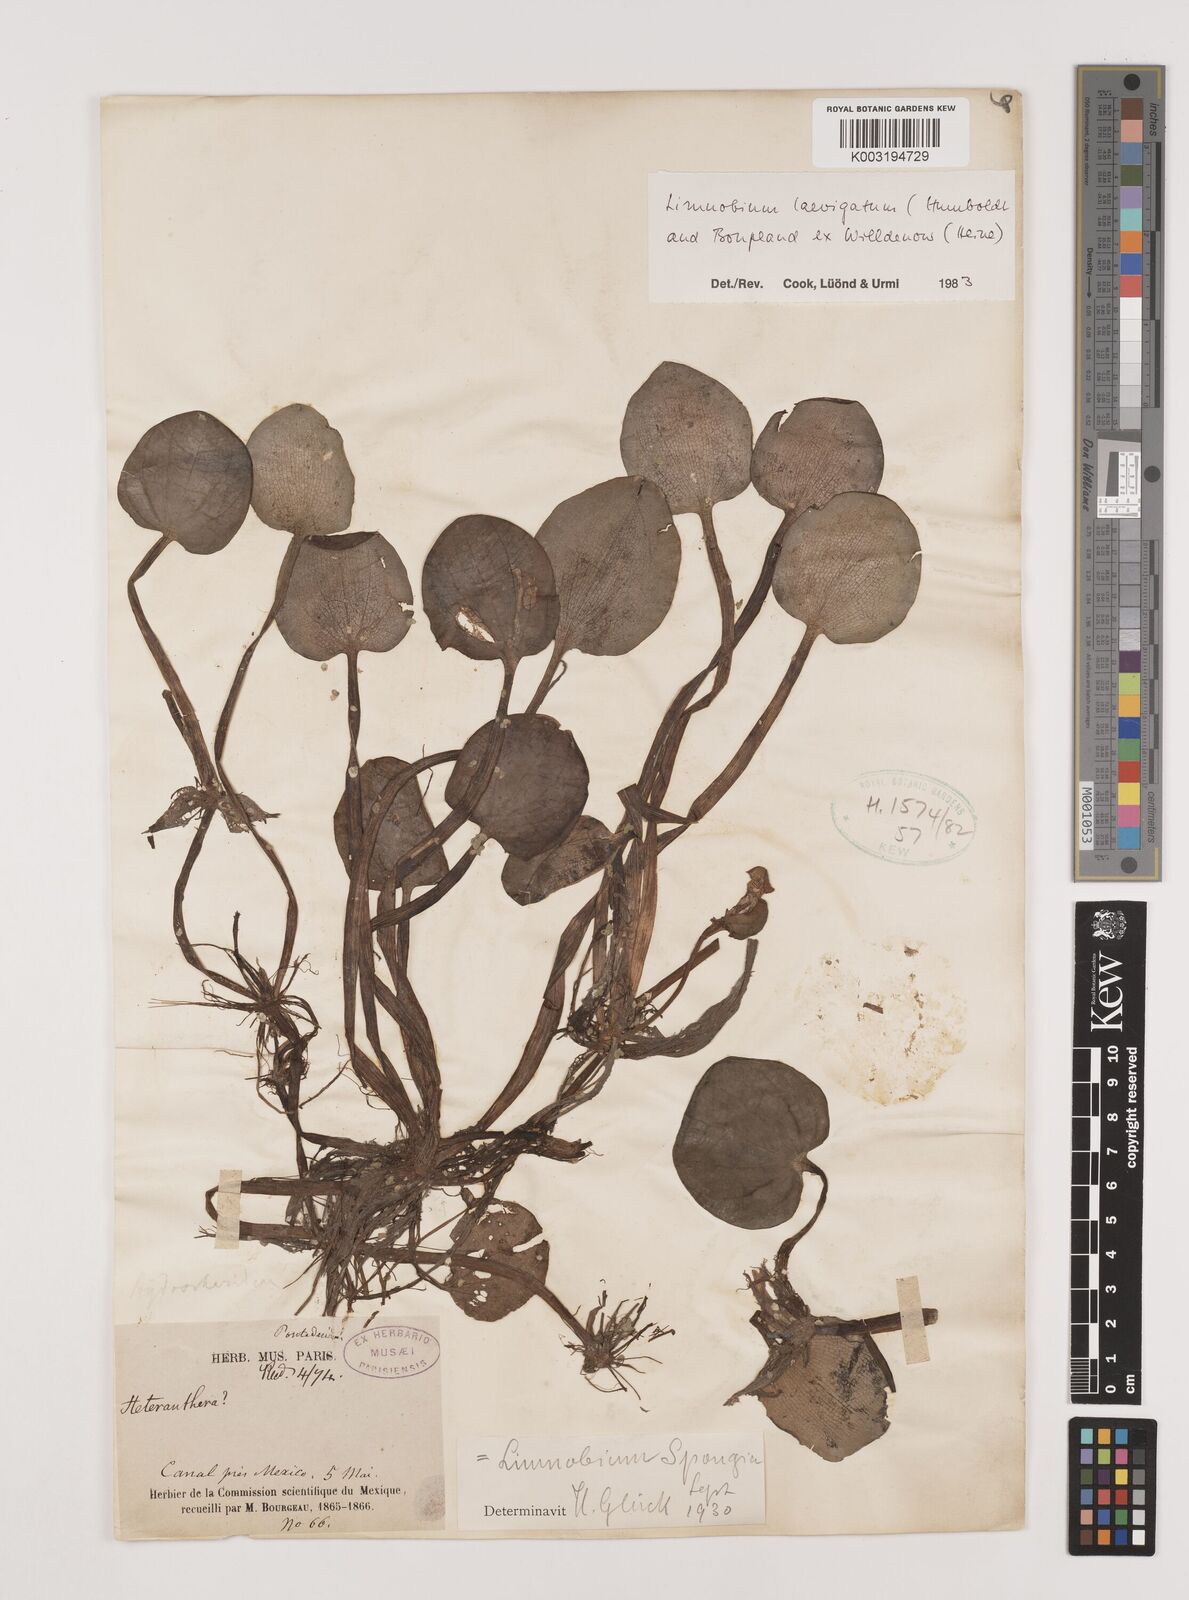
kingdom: Plantae
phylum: Tracheophyta
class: Liliopsida
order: Alismatales
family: Hydrocharitaceae
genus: Hydrocharis
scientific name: Hydrocharis laevigata
